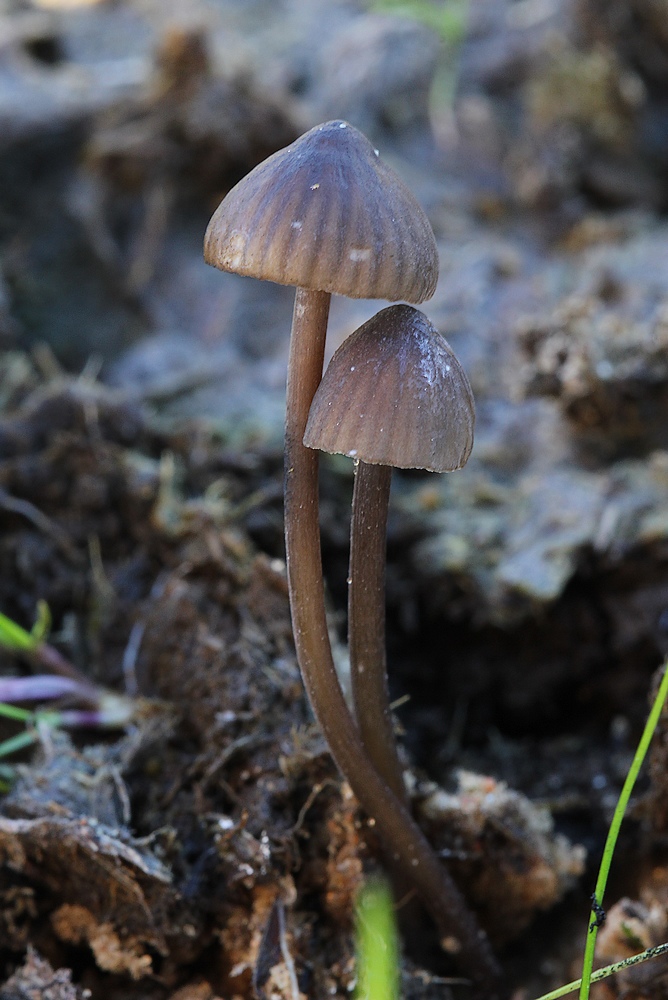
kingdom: Fungi
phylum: Basidiomycota
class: Agaricomycetes
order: Agaricales
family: Mycenaceae
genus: Mycena
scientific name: Mycena galopus
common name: hvidmælket huesvamp
